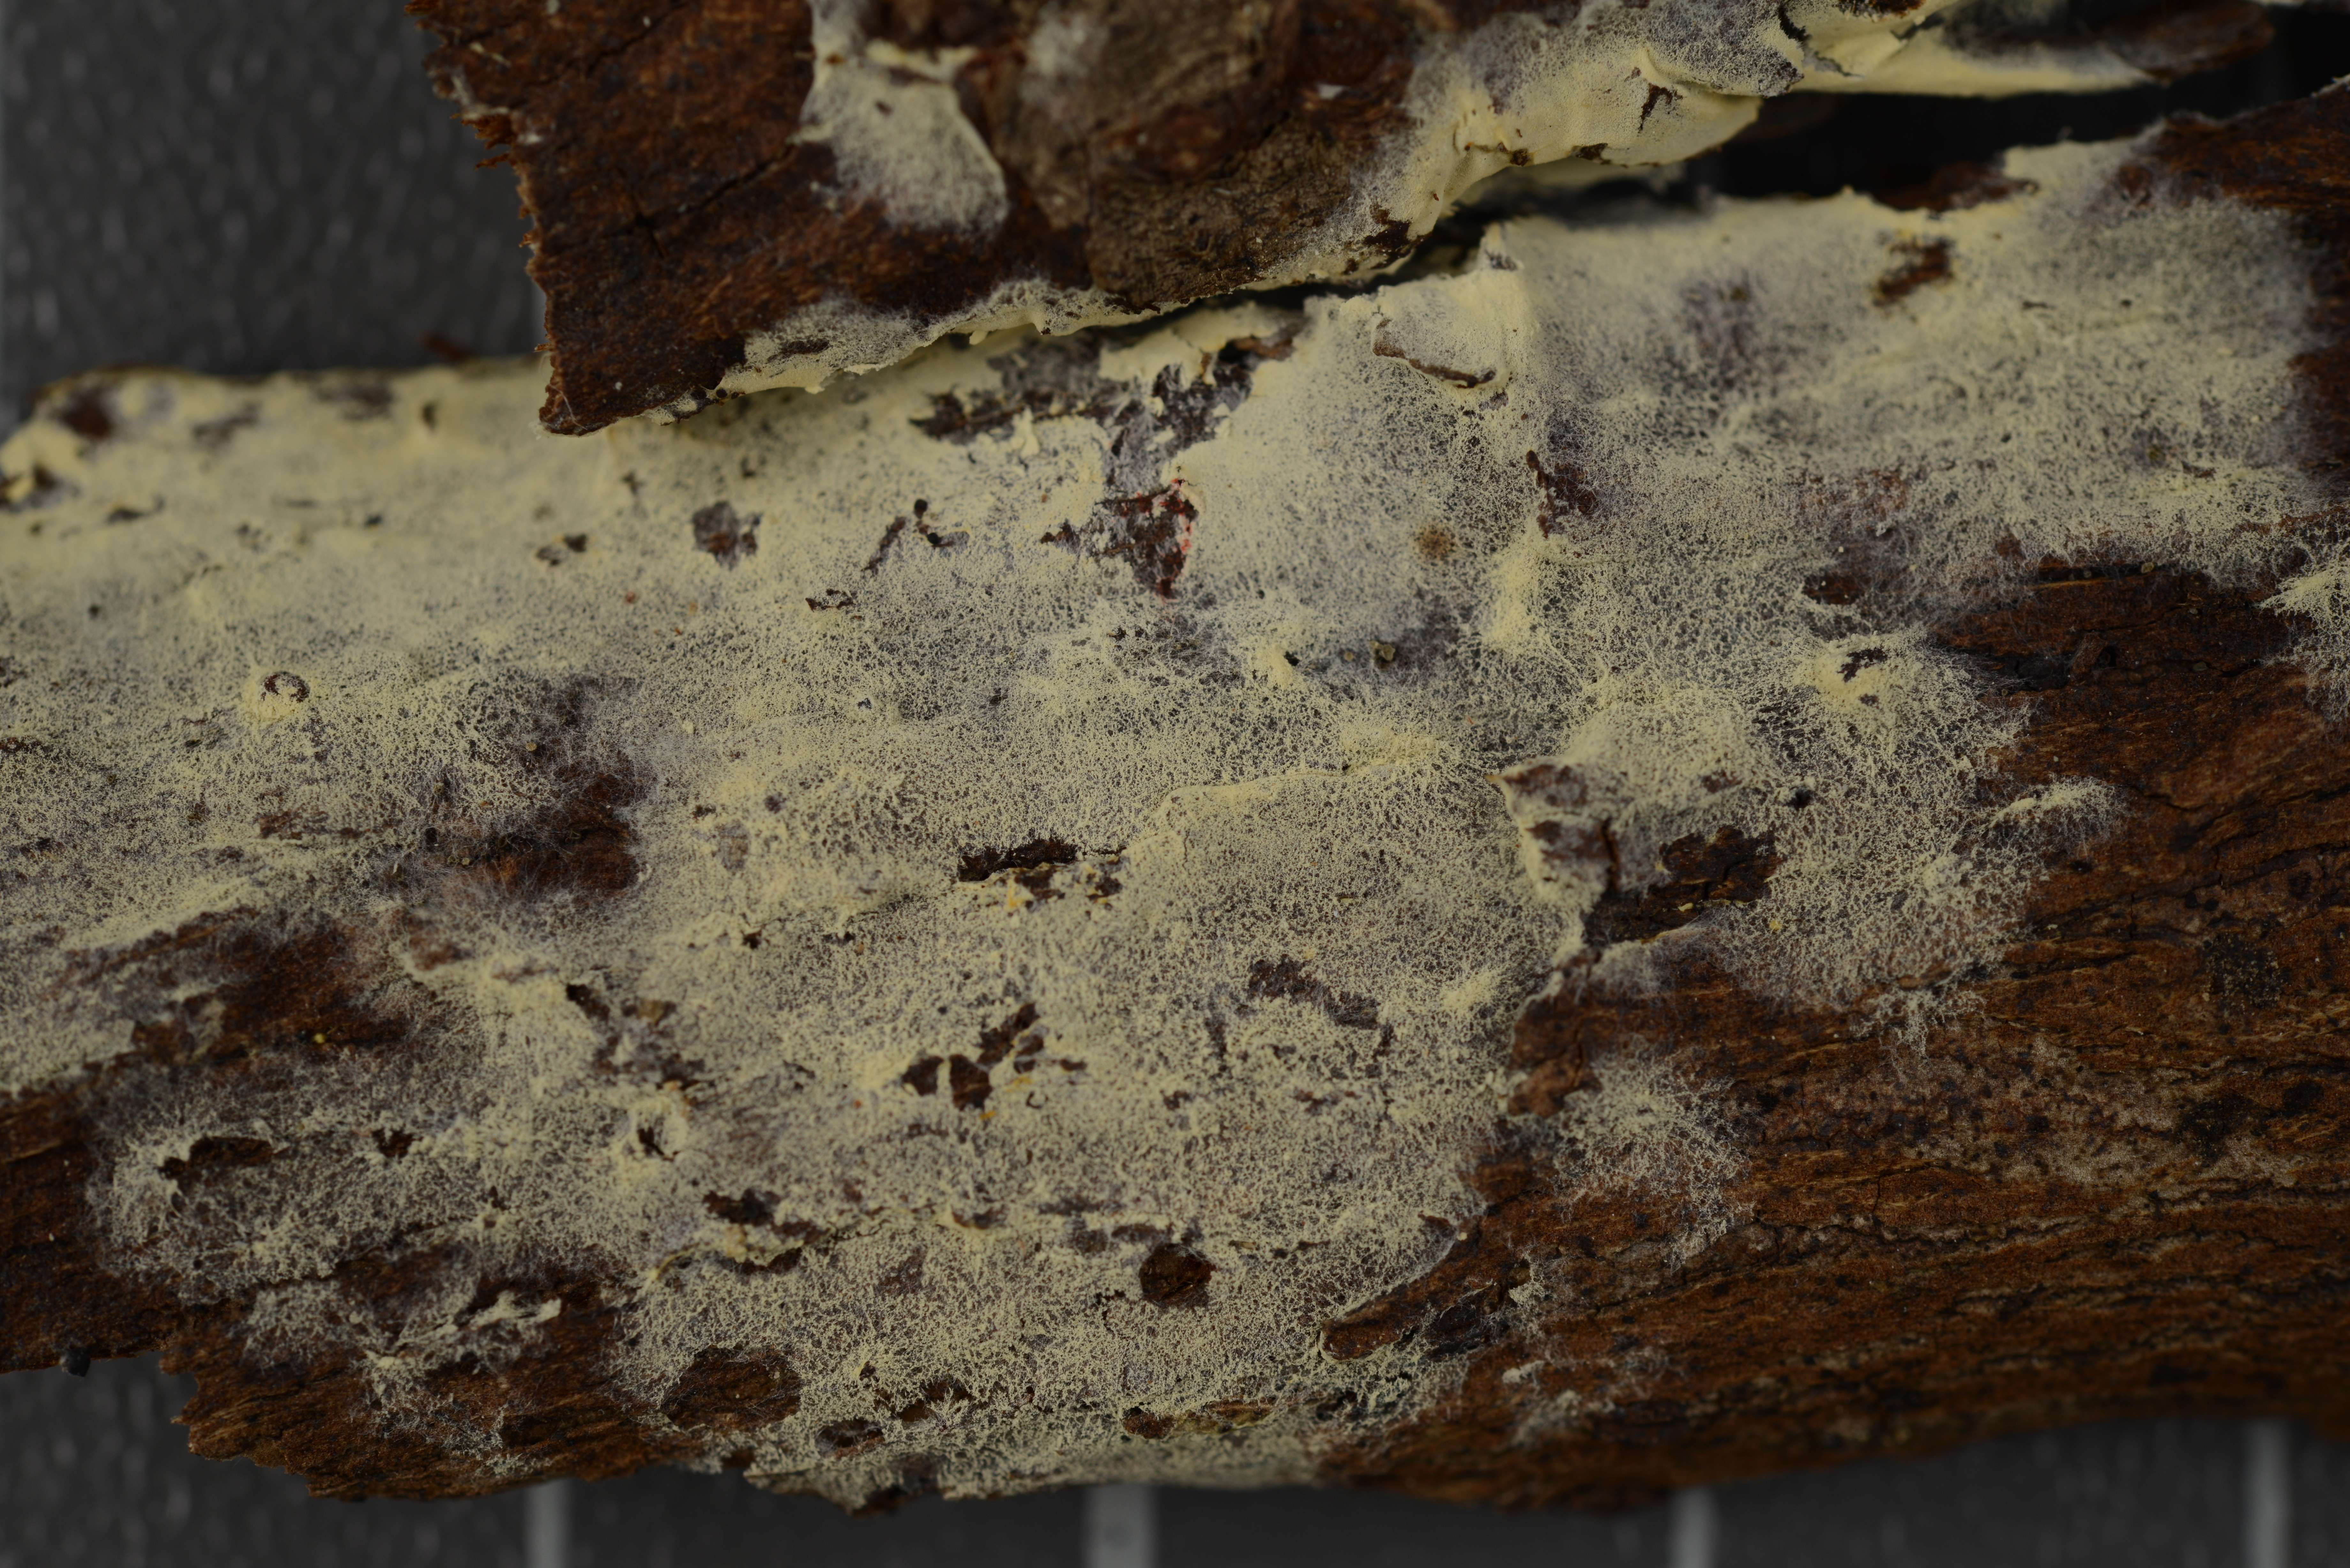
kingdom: Fungi
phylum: Basidiomycota
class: Agaricomycetes
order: Cantharellales
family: Hydnaceae
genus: Sistotrema
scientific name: Sistotrema autumnale
